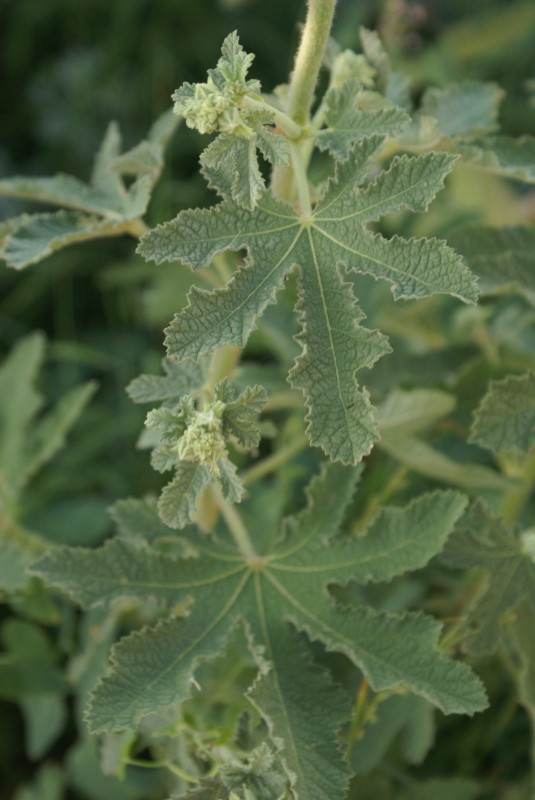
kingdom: Plantae
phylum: Tracheophyta
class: Magnoliopsida
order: Malvales
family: Malvaceae
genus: Alcea
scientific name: Alcea rugosa
